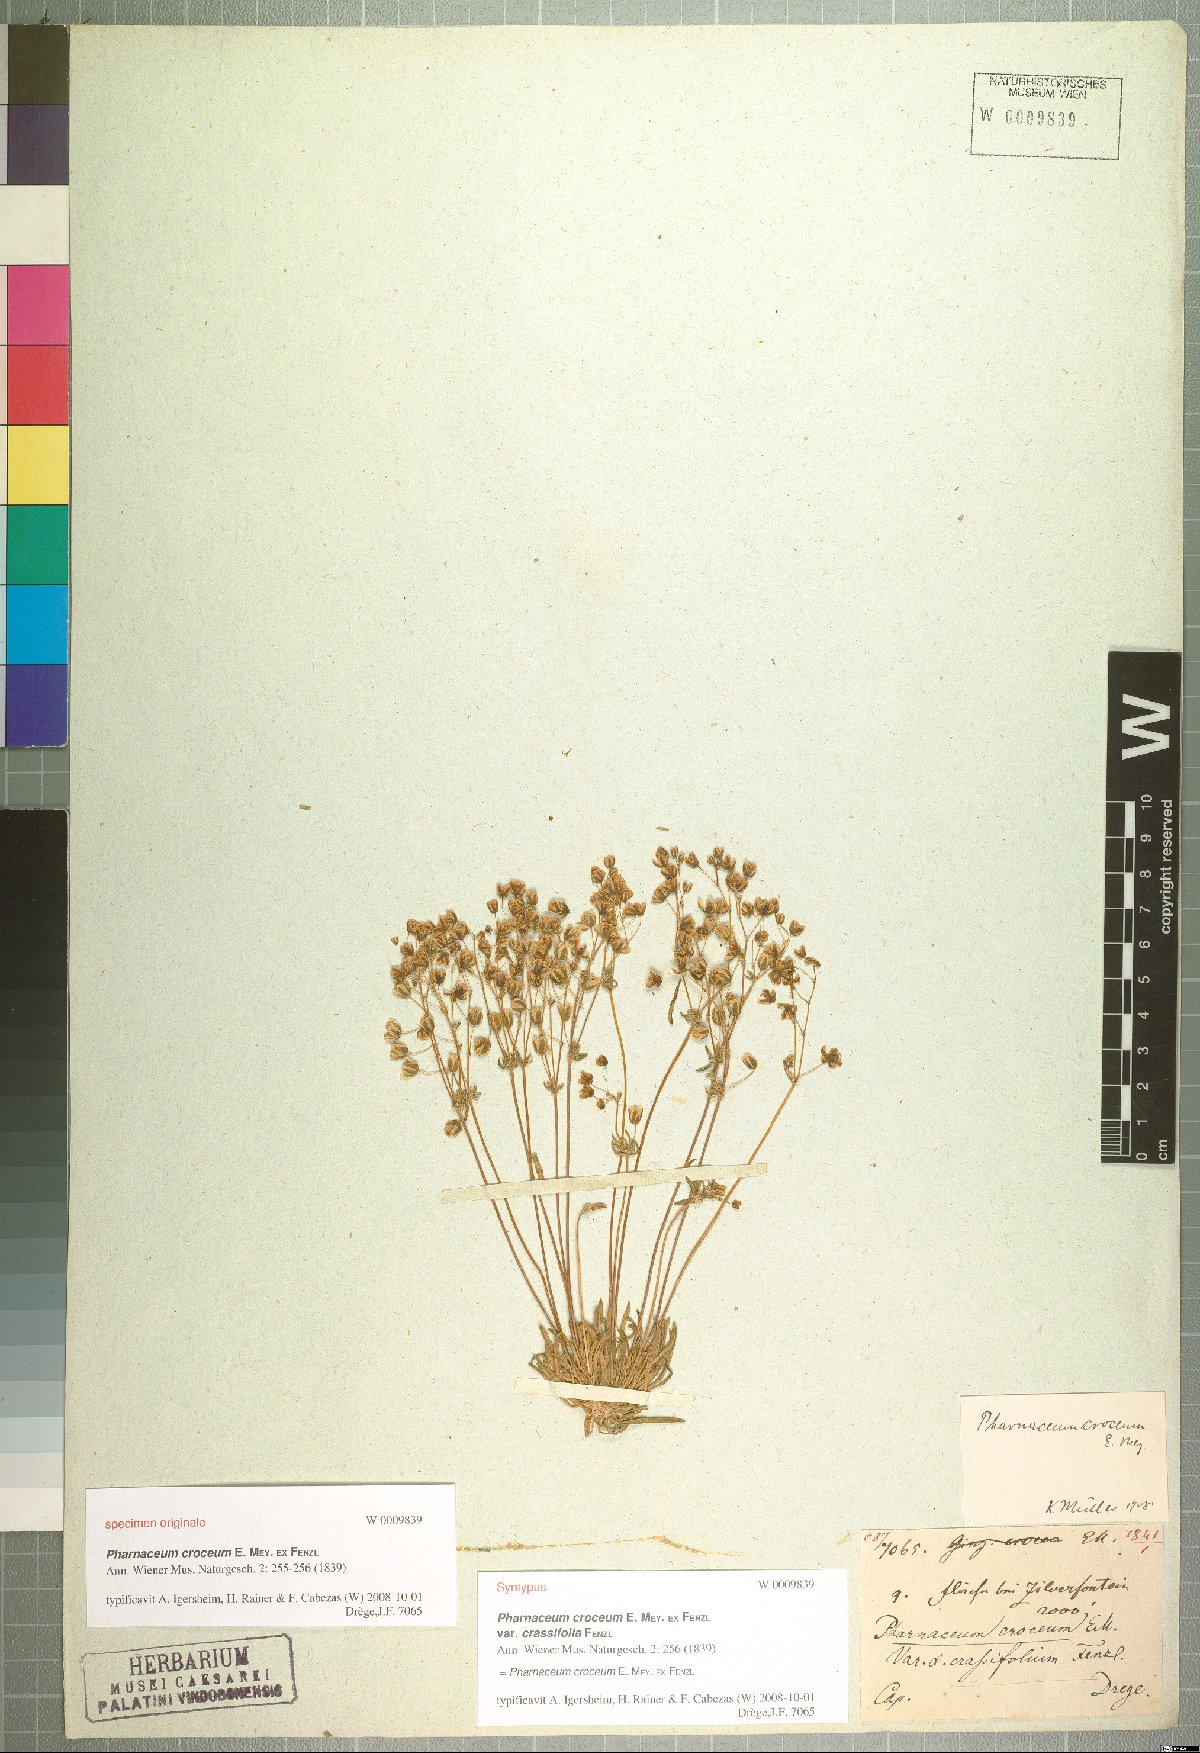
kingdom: Plantae
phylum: Tracheophyta
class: Magnoliopsida
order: Caryophyllales
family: Molluginaceae
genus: Pharnaceum
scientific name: Pharnaceum croceum
